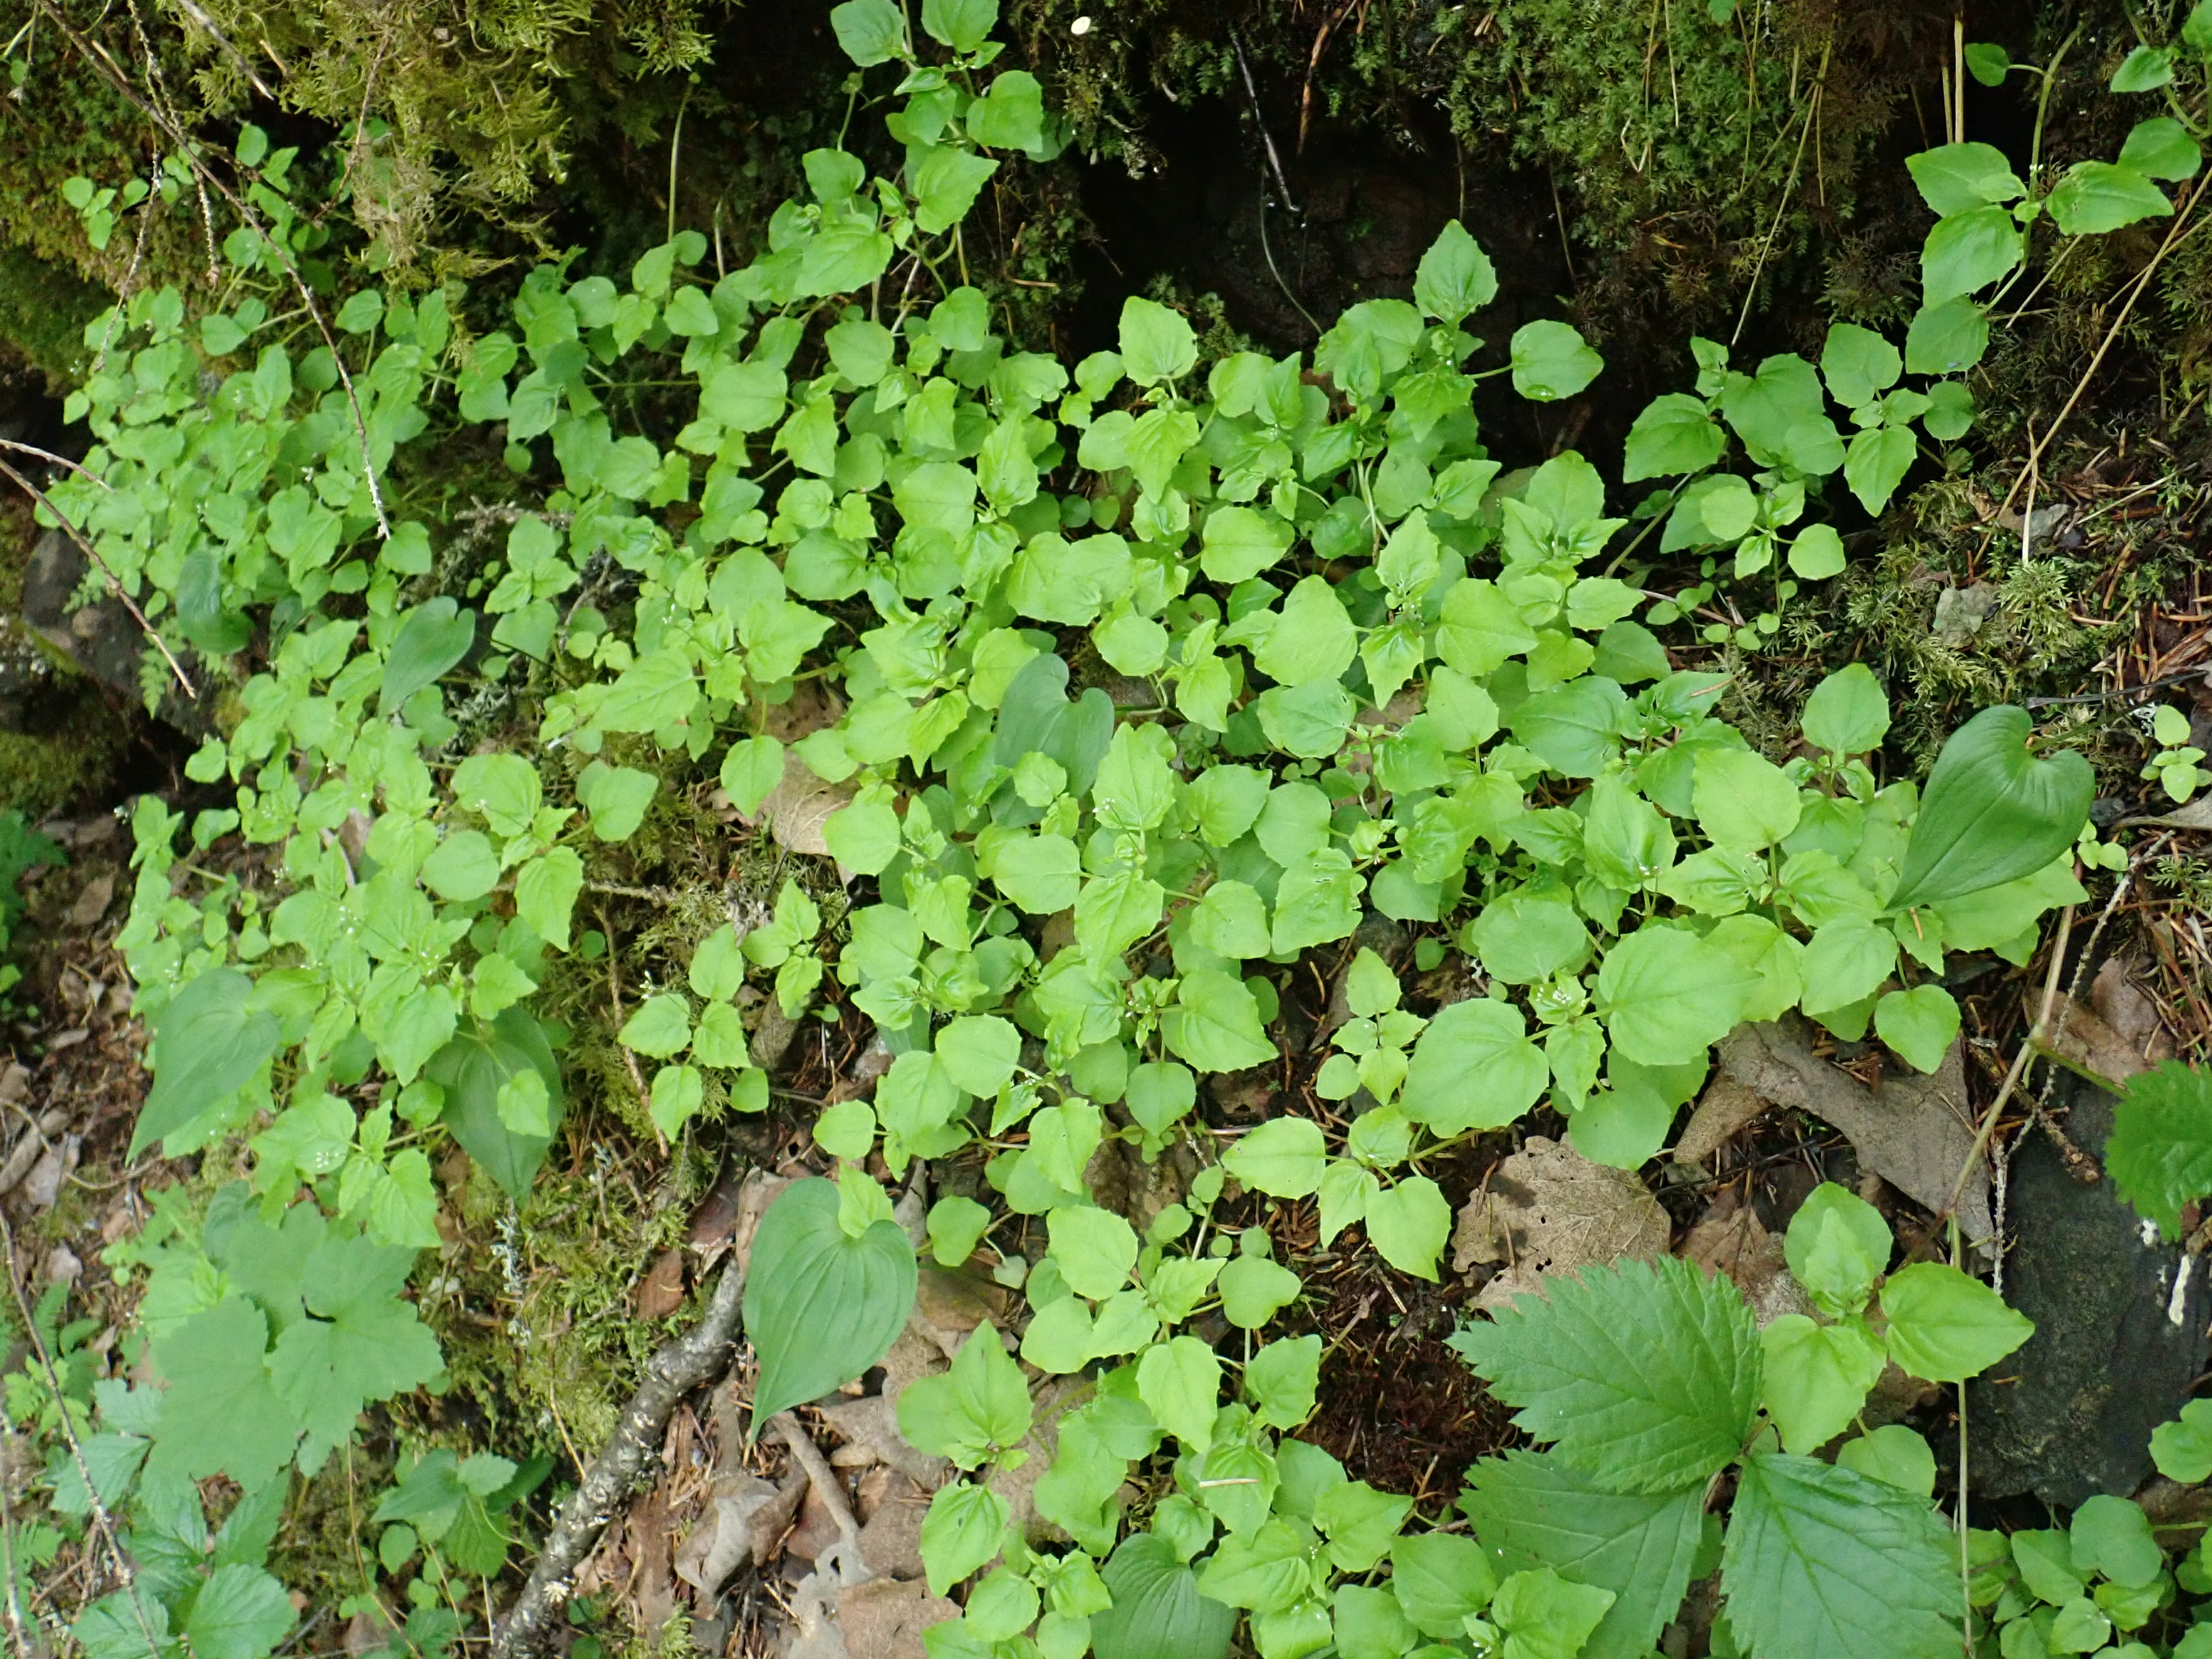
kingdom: Plantae
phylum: Tracheophyta
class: Magnoliopsida
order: Myrtales
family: Onagraceae
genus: Circaea
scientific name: Circaea alpina
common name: Alpine enchanter's-nightshade
